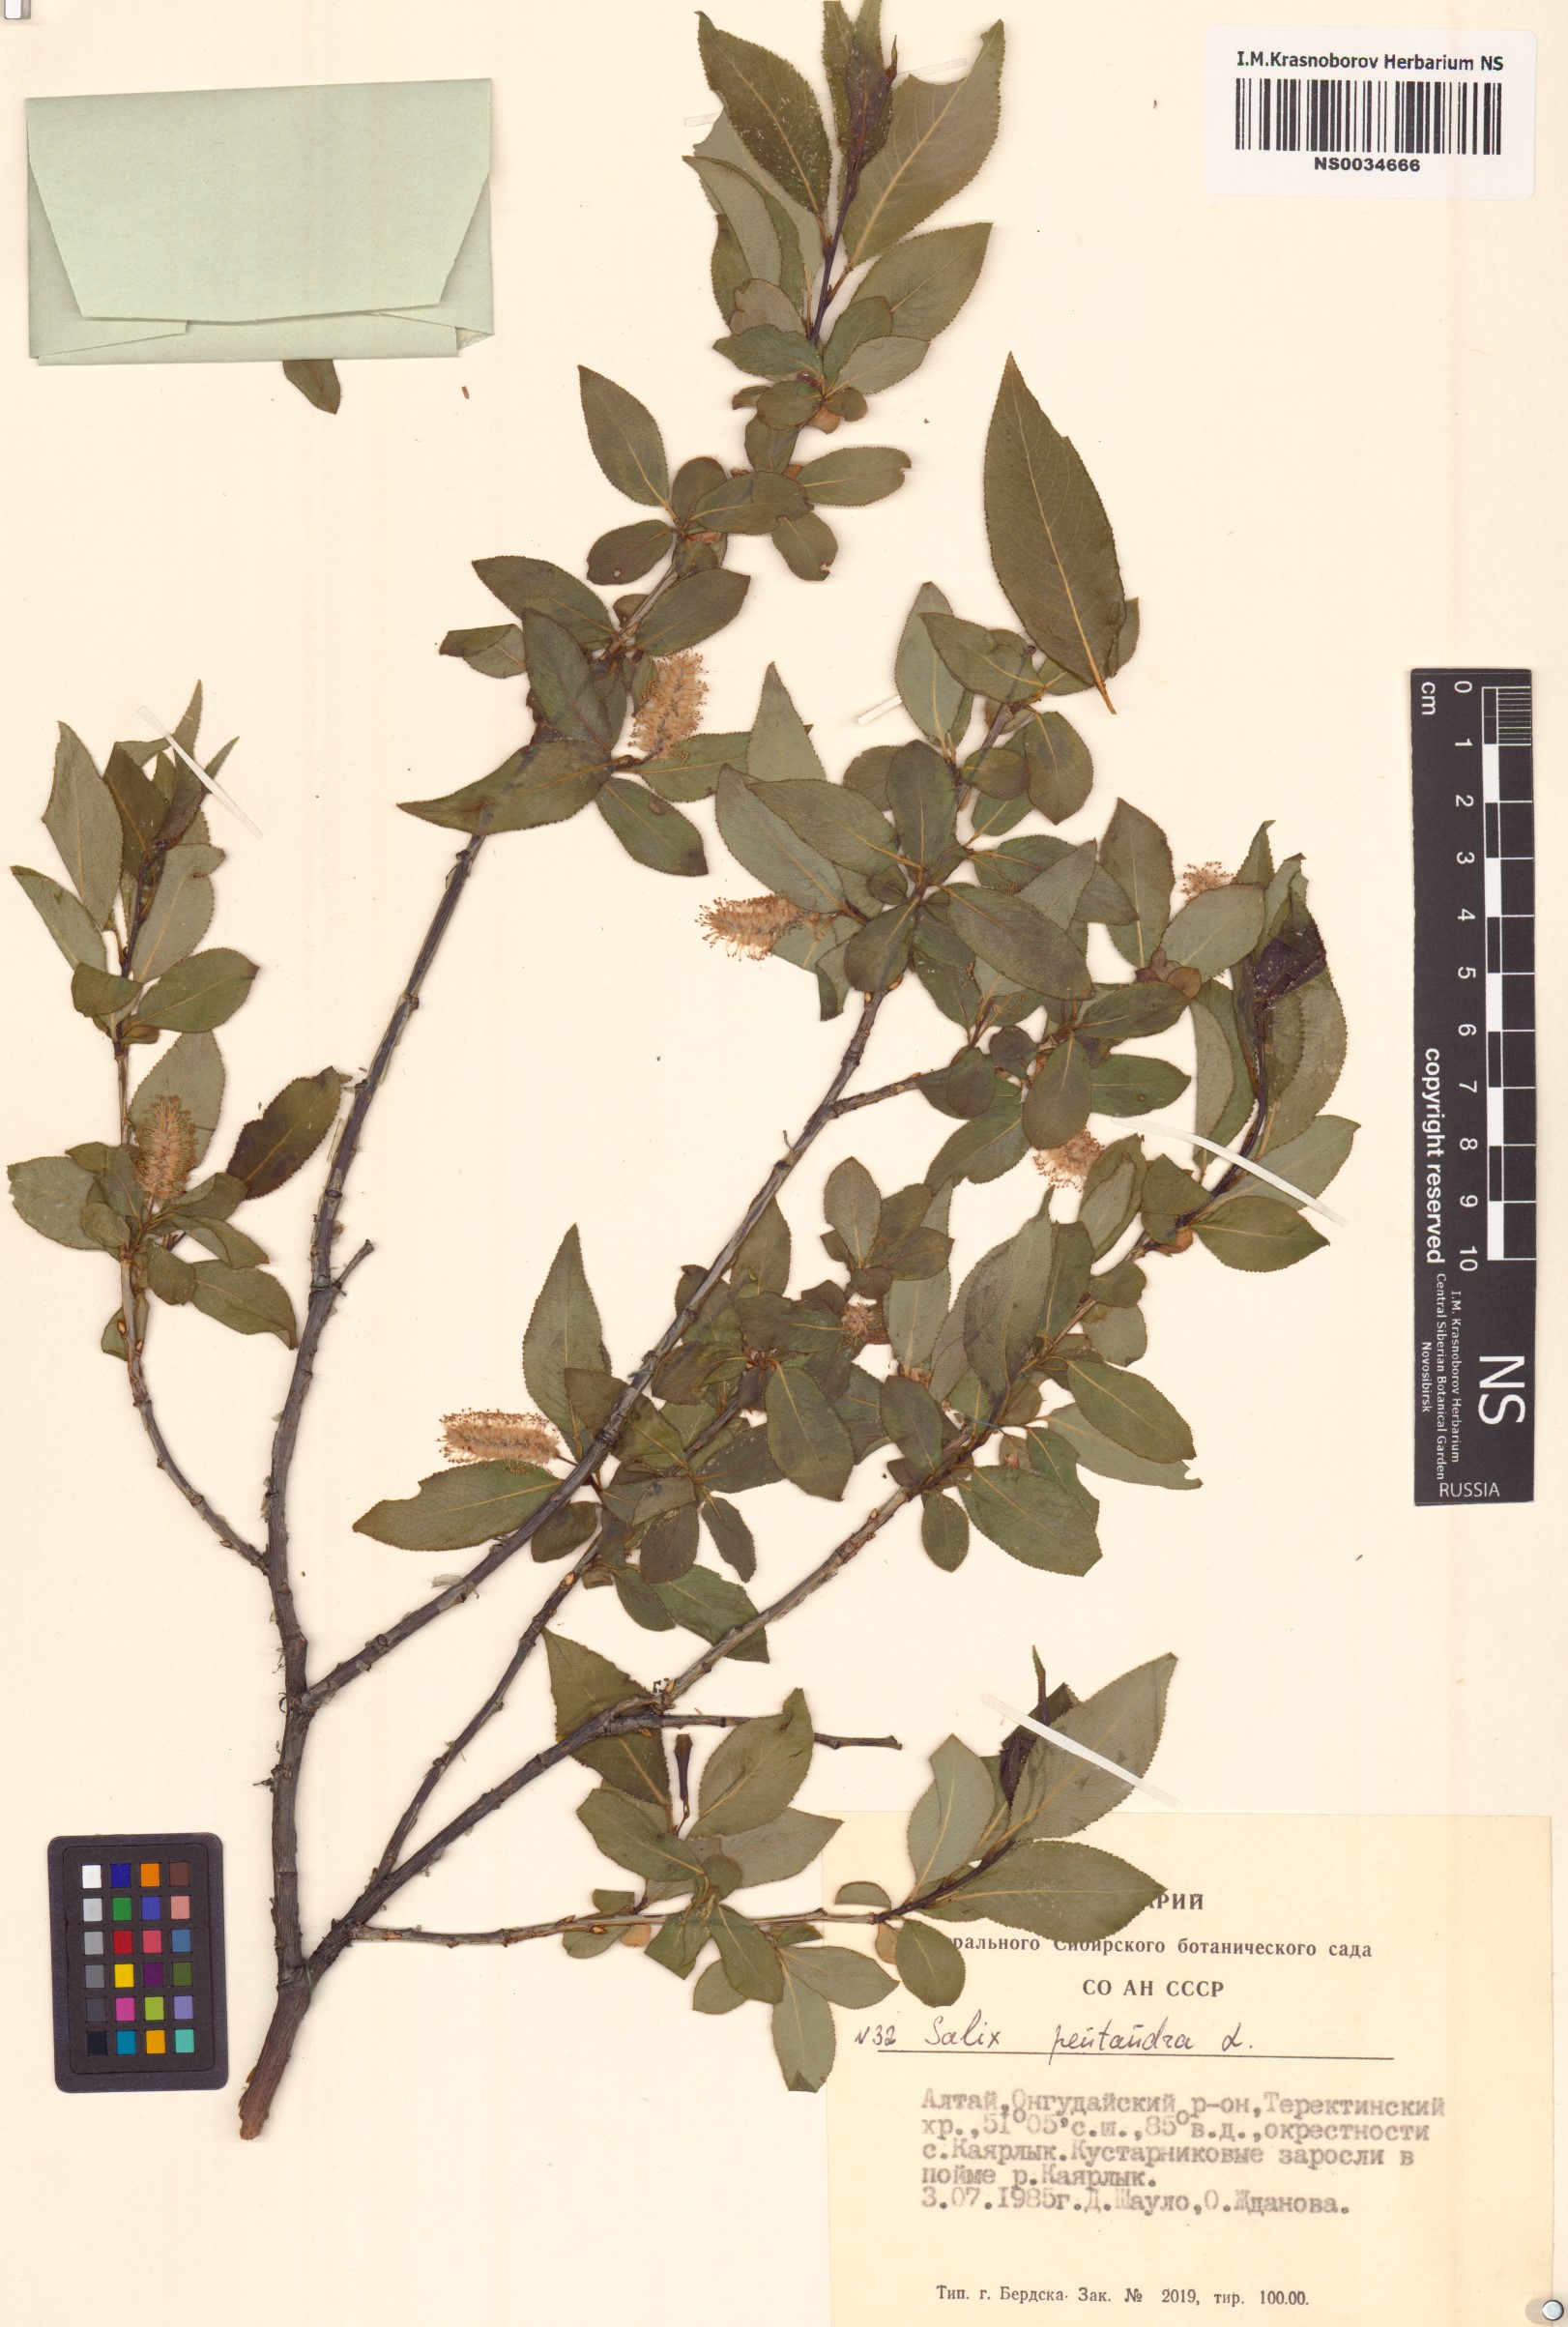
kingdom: Plantae
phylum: Tracheophyta
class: Magnoliopsida
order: Malpighiales
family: Salicaceae
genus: Salix
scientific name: Salix pentandra
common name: Bay willow
